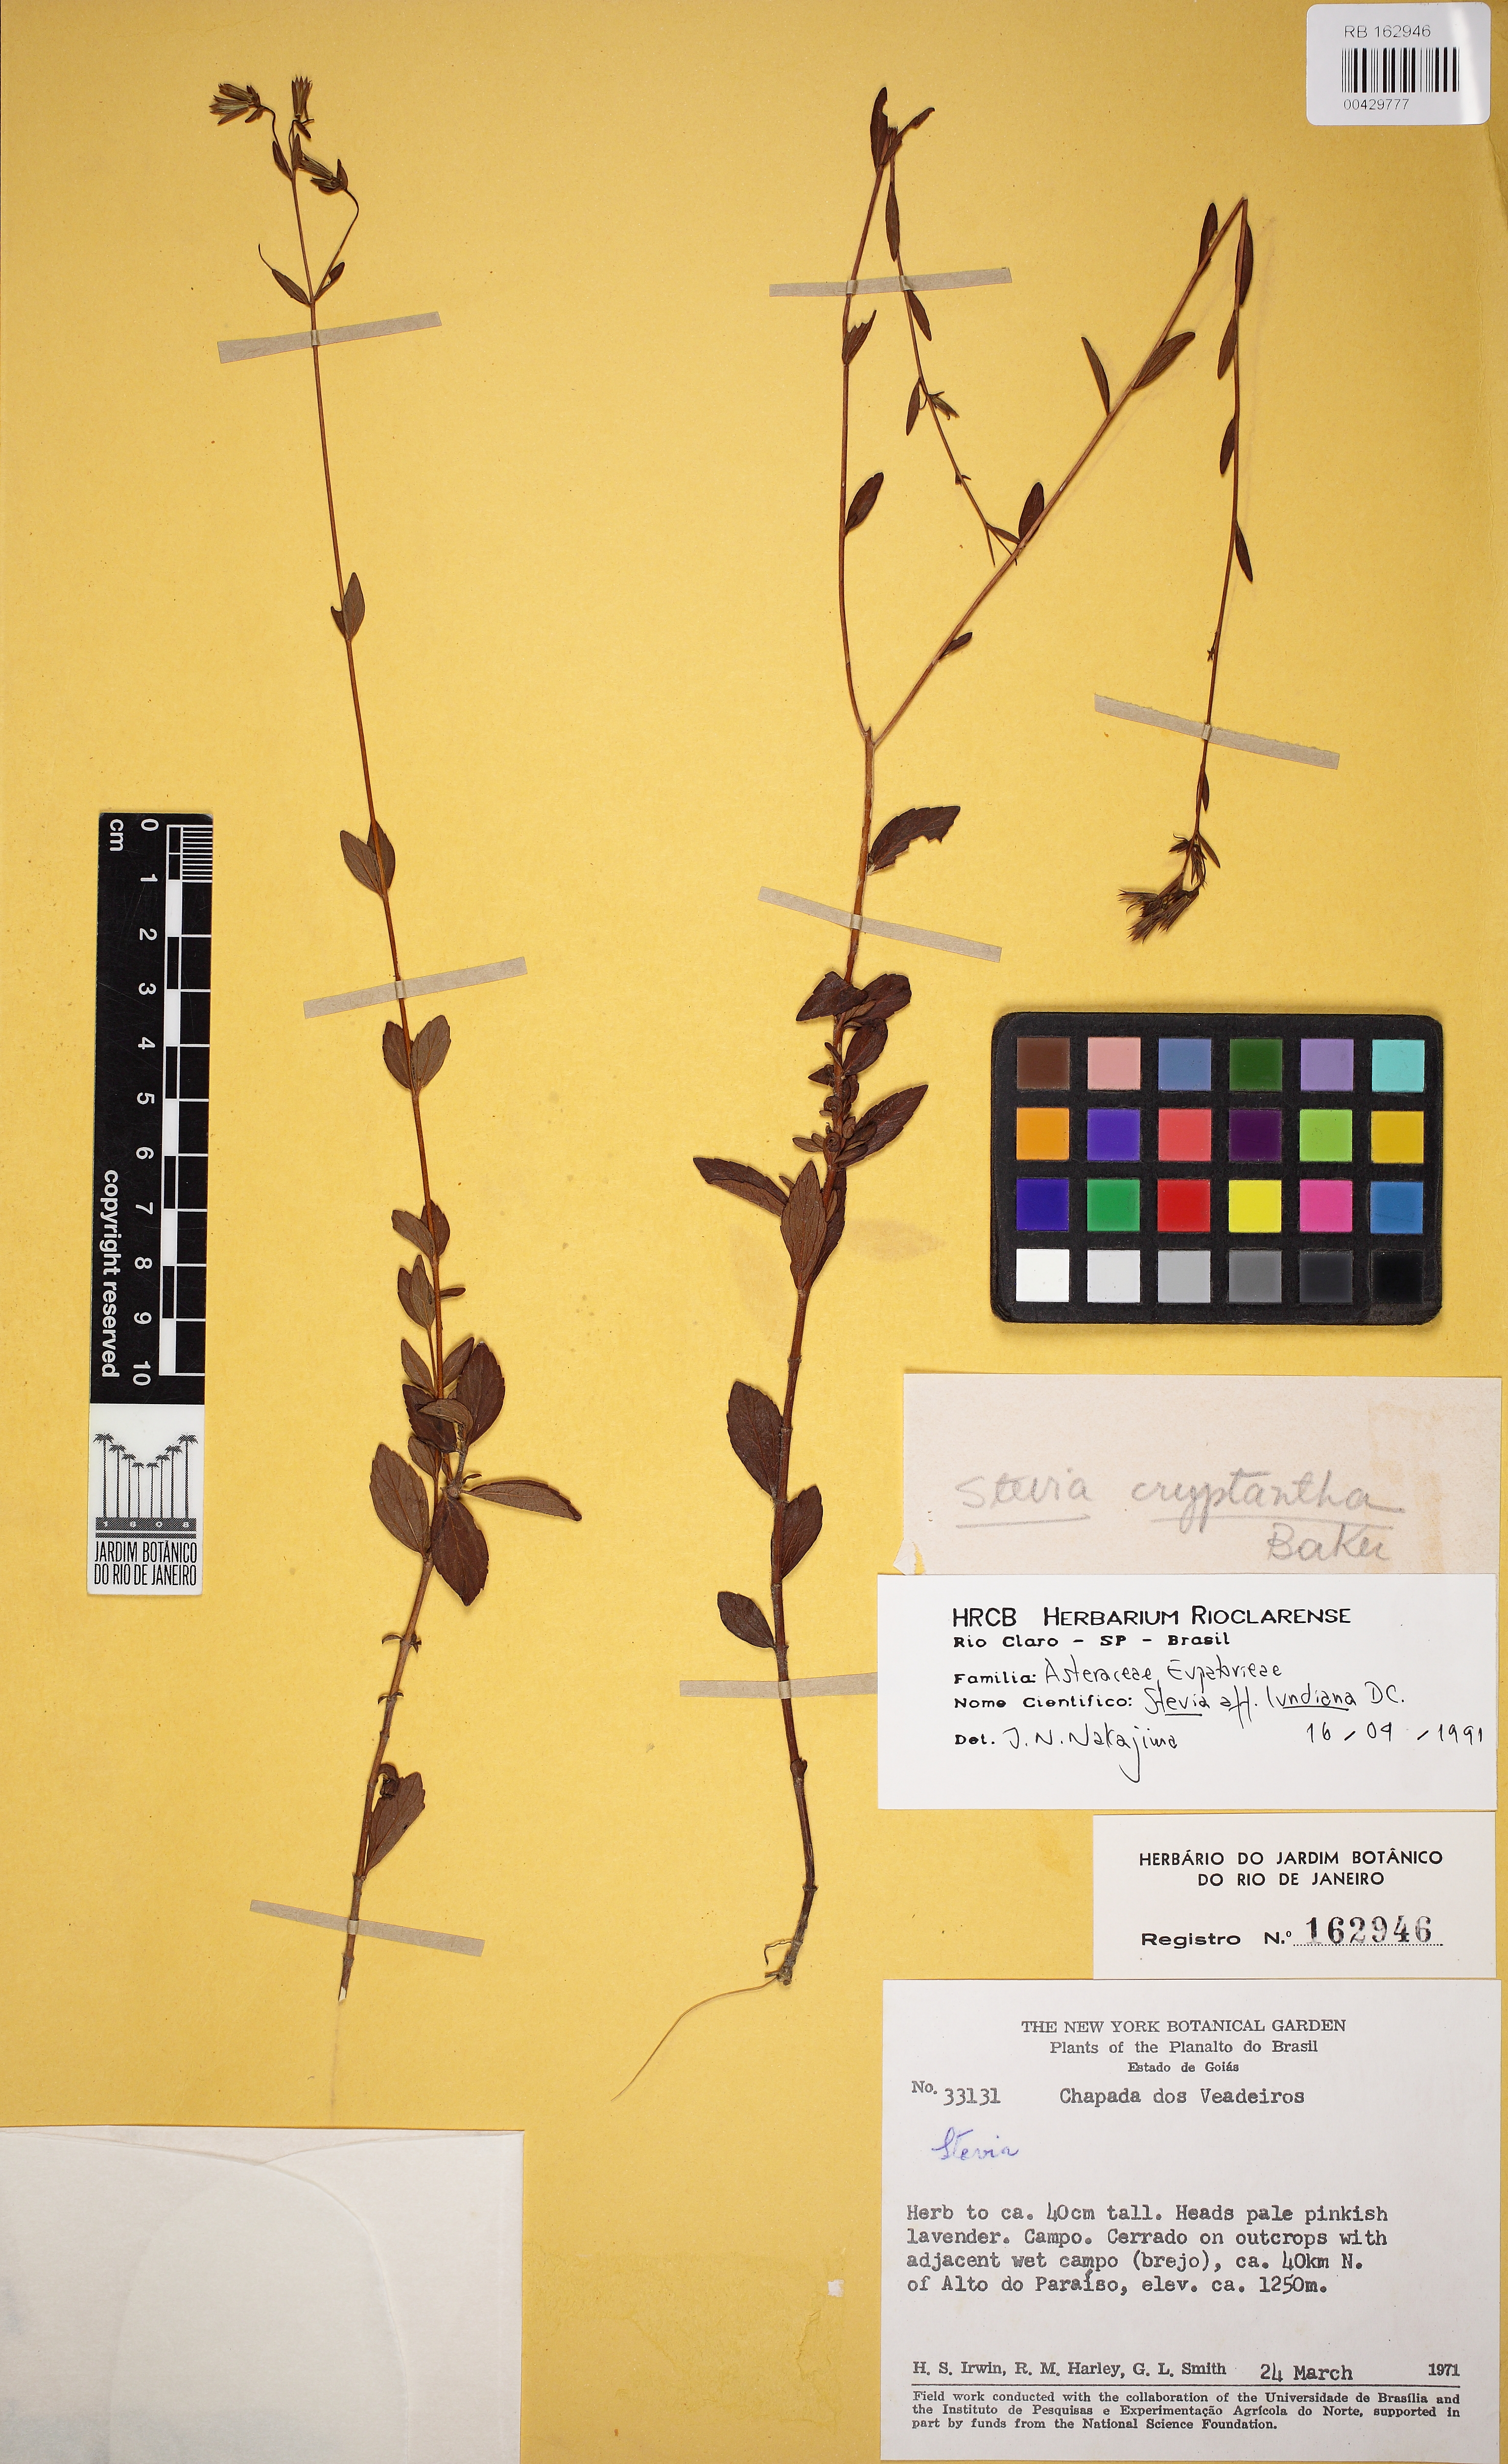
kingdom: Plantae
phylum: Tracheophyta
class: Magnoliopsida
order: Asterales
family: Asteraceae
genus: Stevia
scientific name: Stevia lundiana
